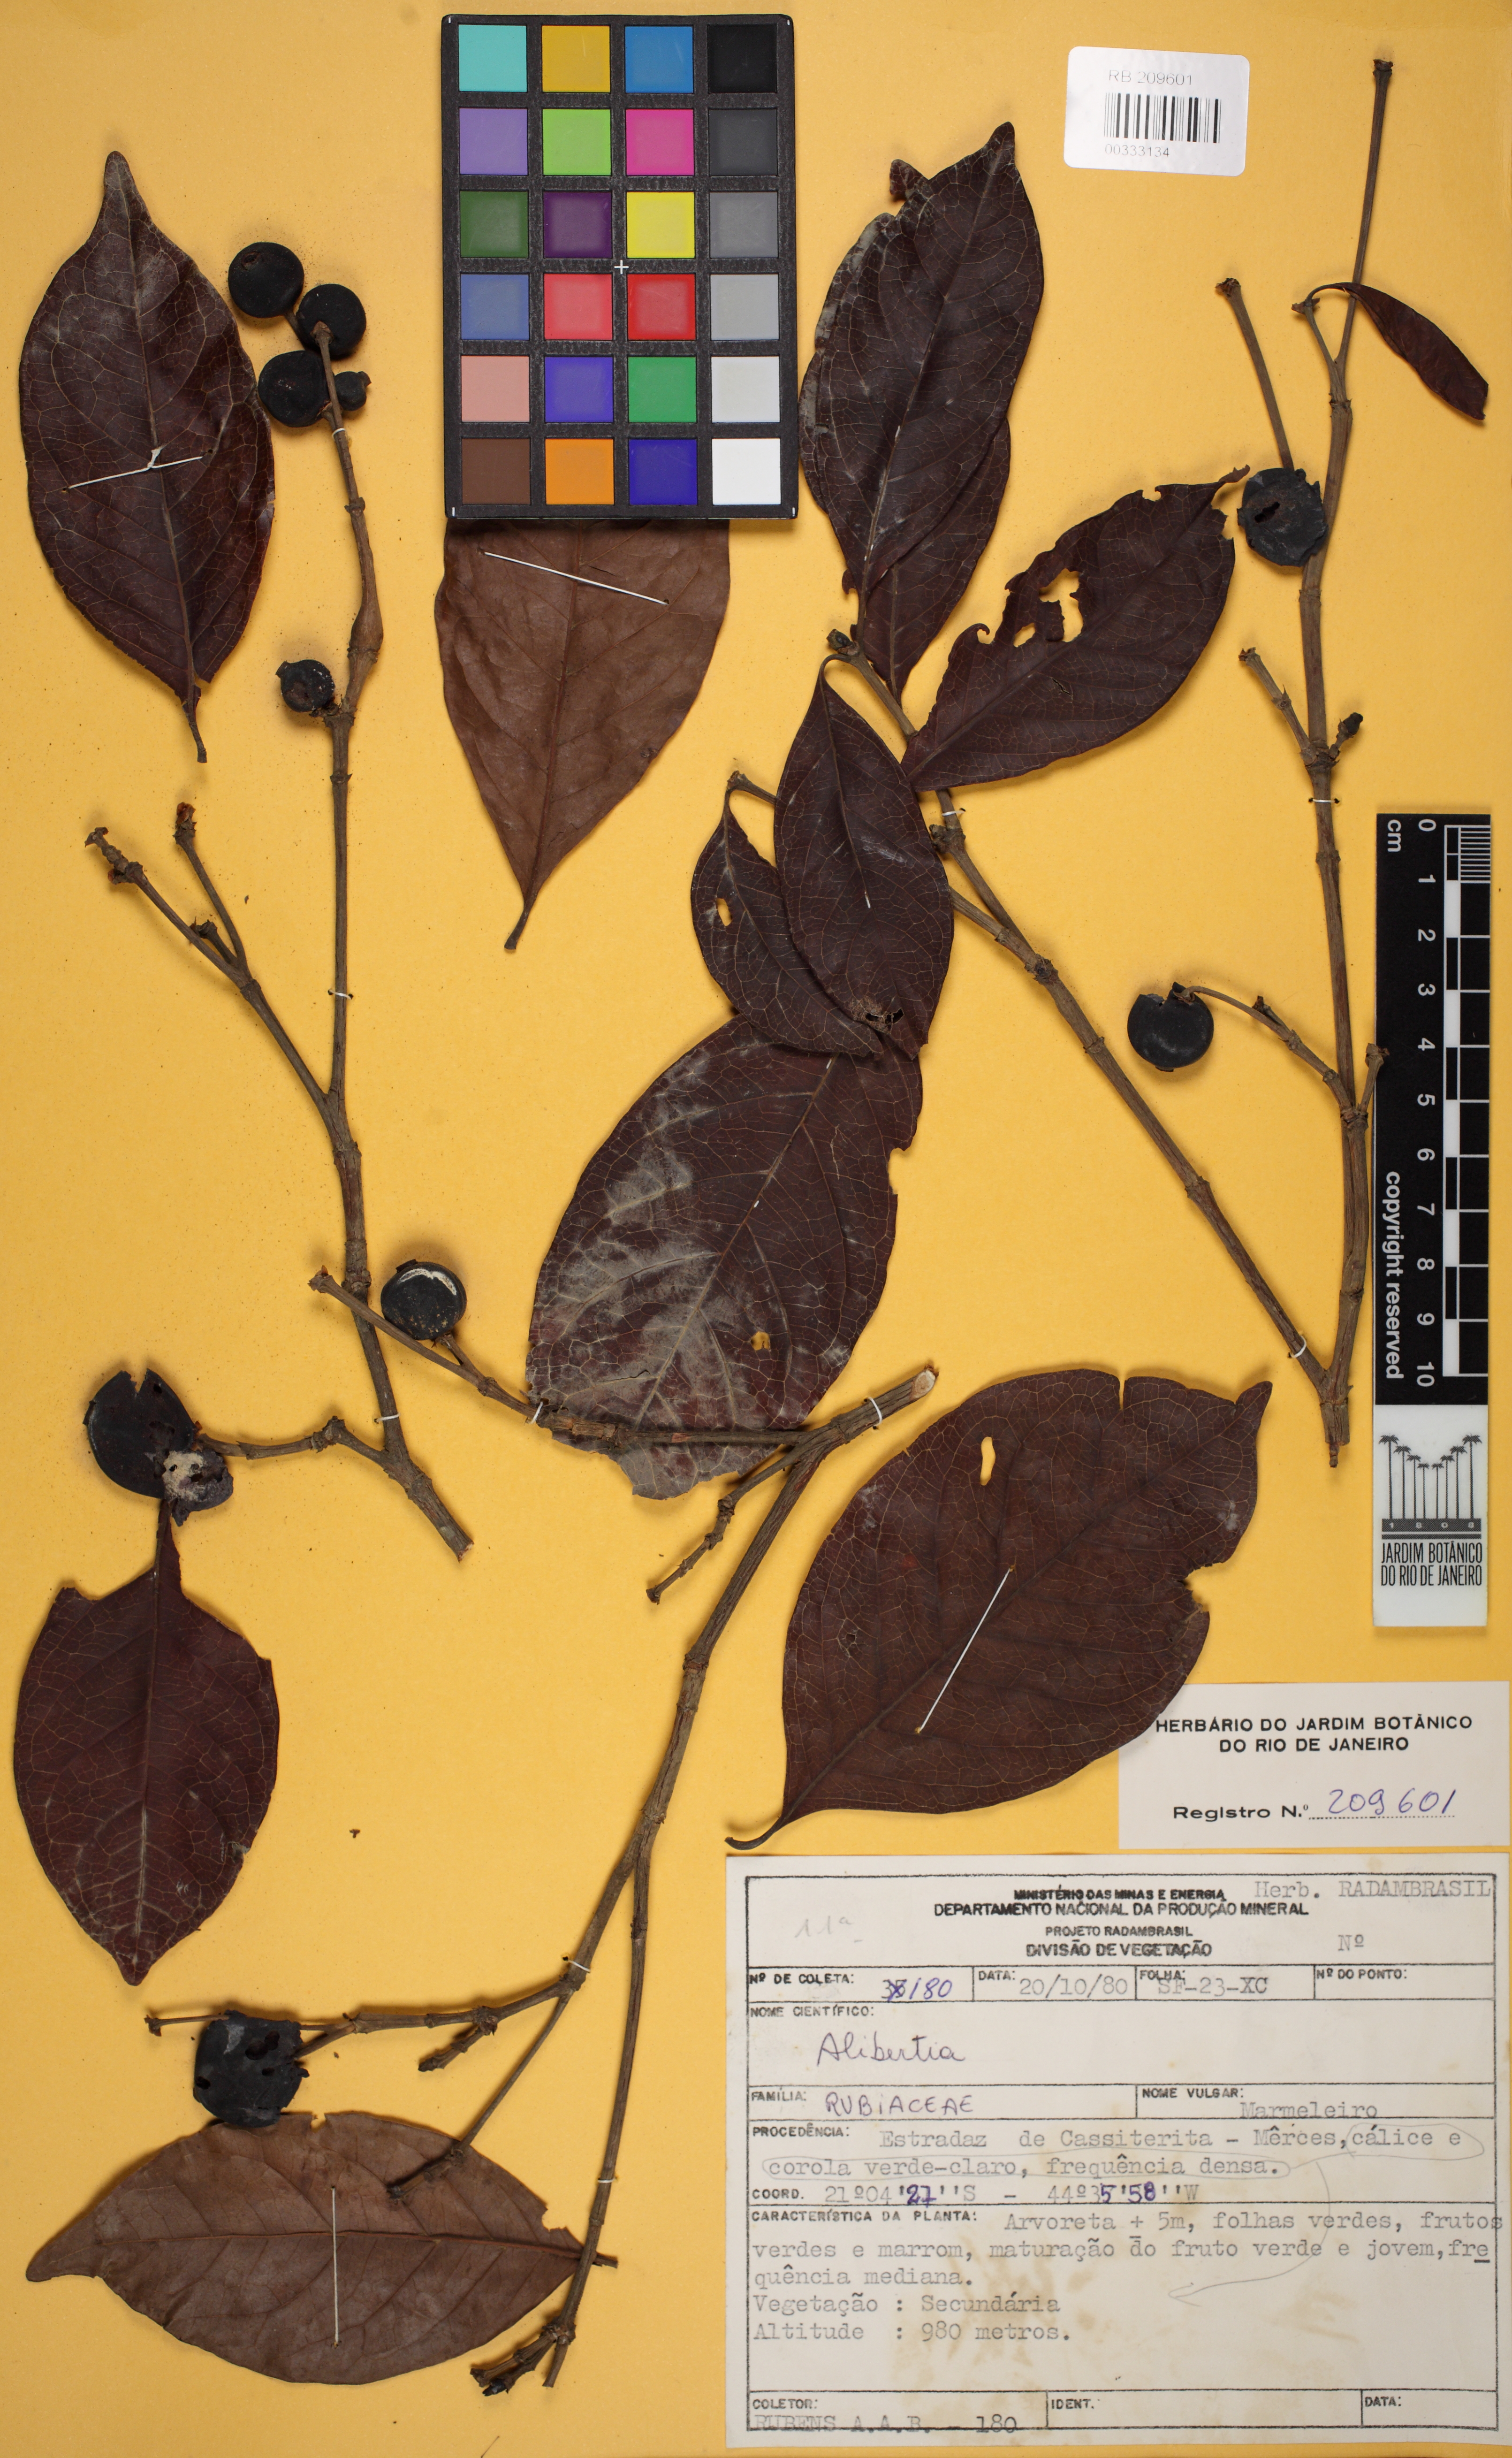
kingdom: Plantae
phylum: Tracheophyta
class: Magnoliopsida
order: Gentianales
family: Rubiaceae
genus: Cordiera
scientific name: Cordiera sessilis
